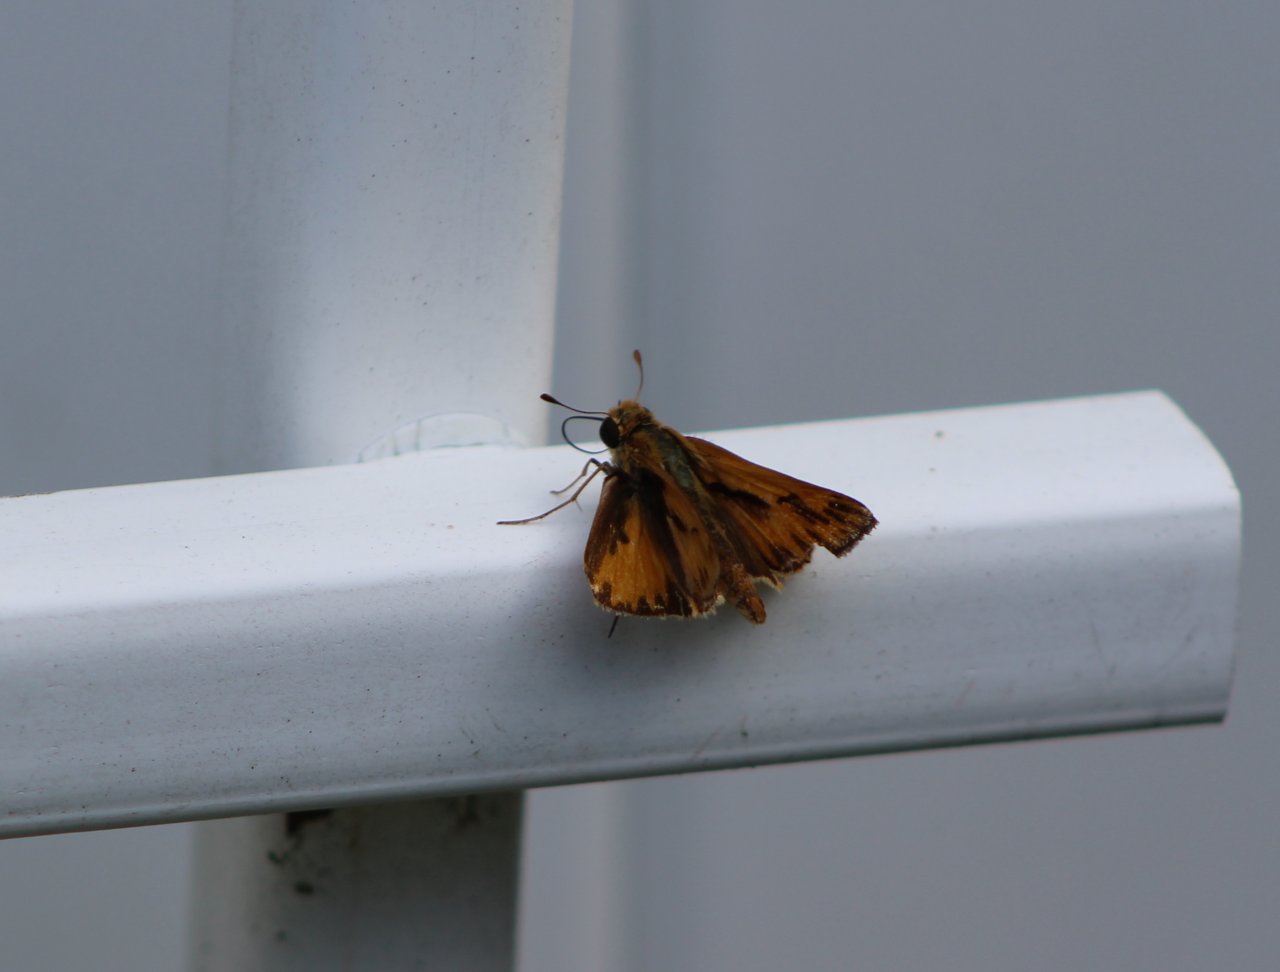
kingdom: Animalia
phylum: Arthropoda
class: Insecta
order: Lepidoptera
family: Hesperiidae
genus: Hylephila
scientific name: Hylephila phyleus
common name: Fiery Skipper
